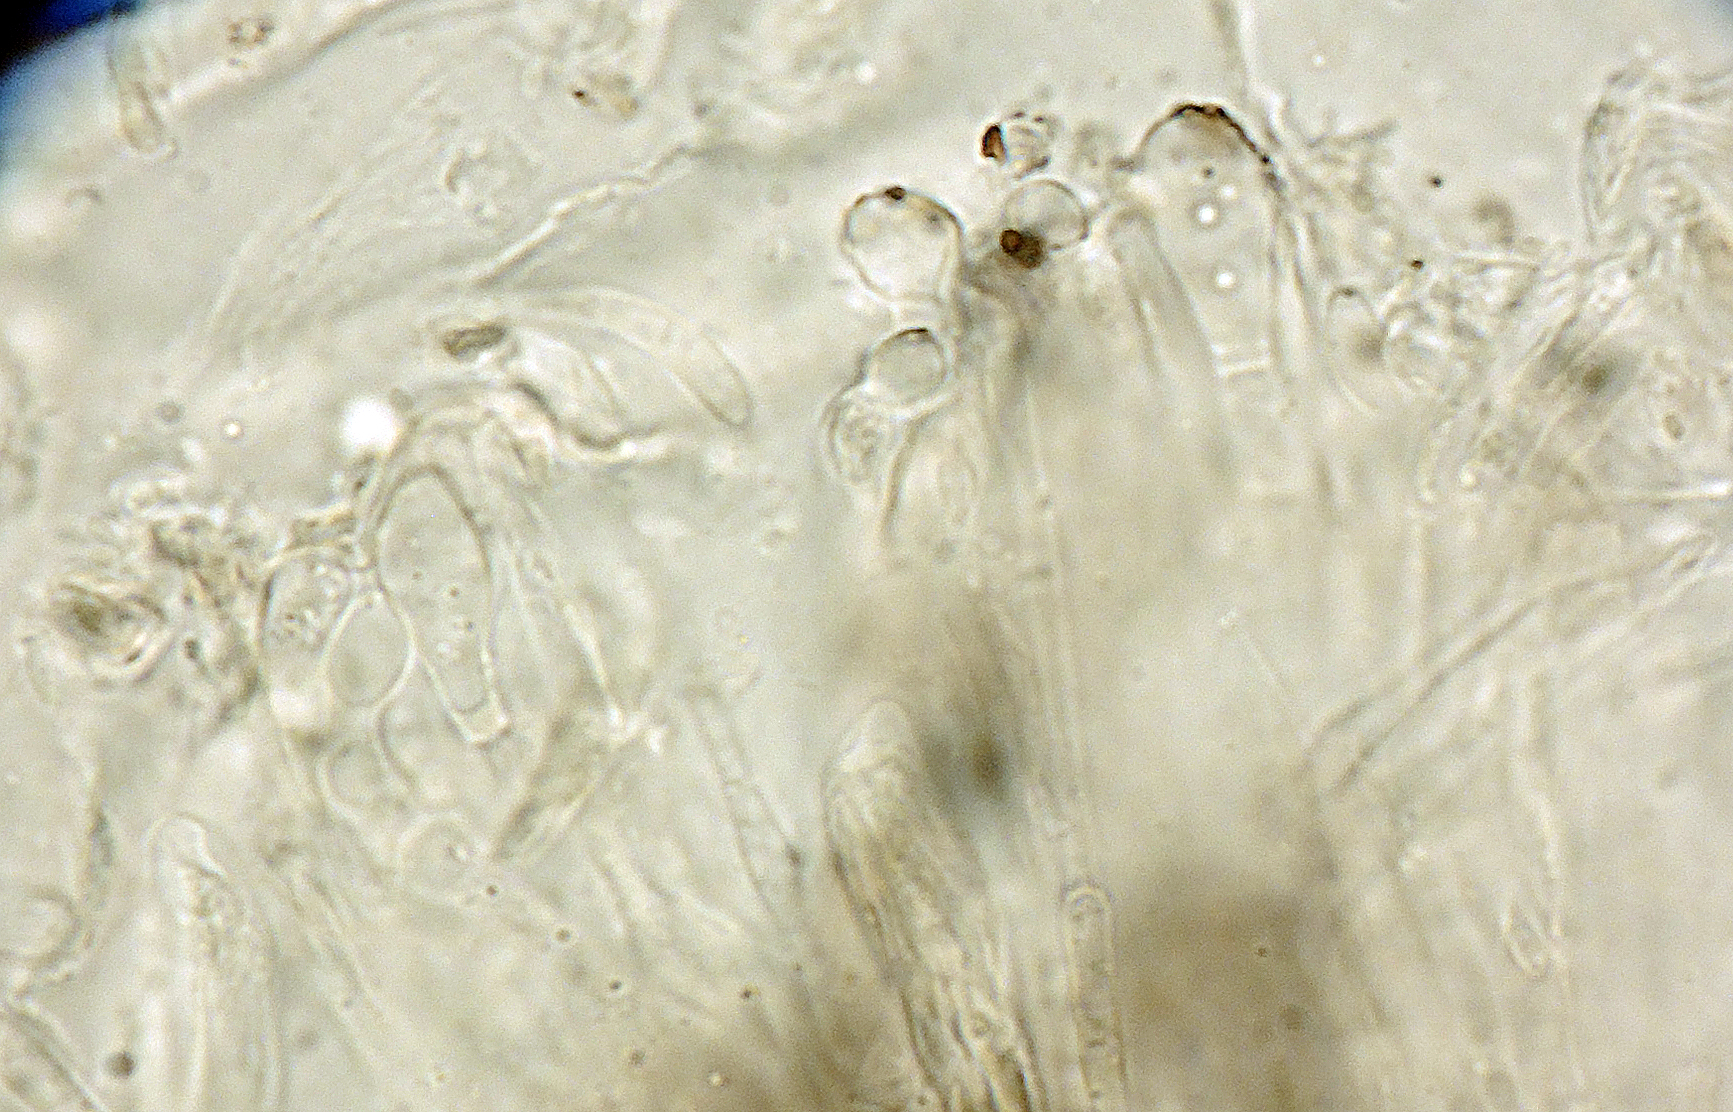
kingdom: Fungi
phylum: Ascomycota
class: Leotiomycetes
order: Helotiales
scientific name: Helotiales
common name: stilkskiveordenen
